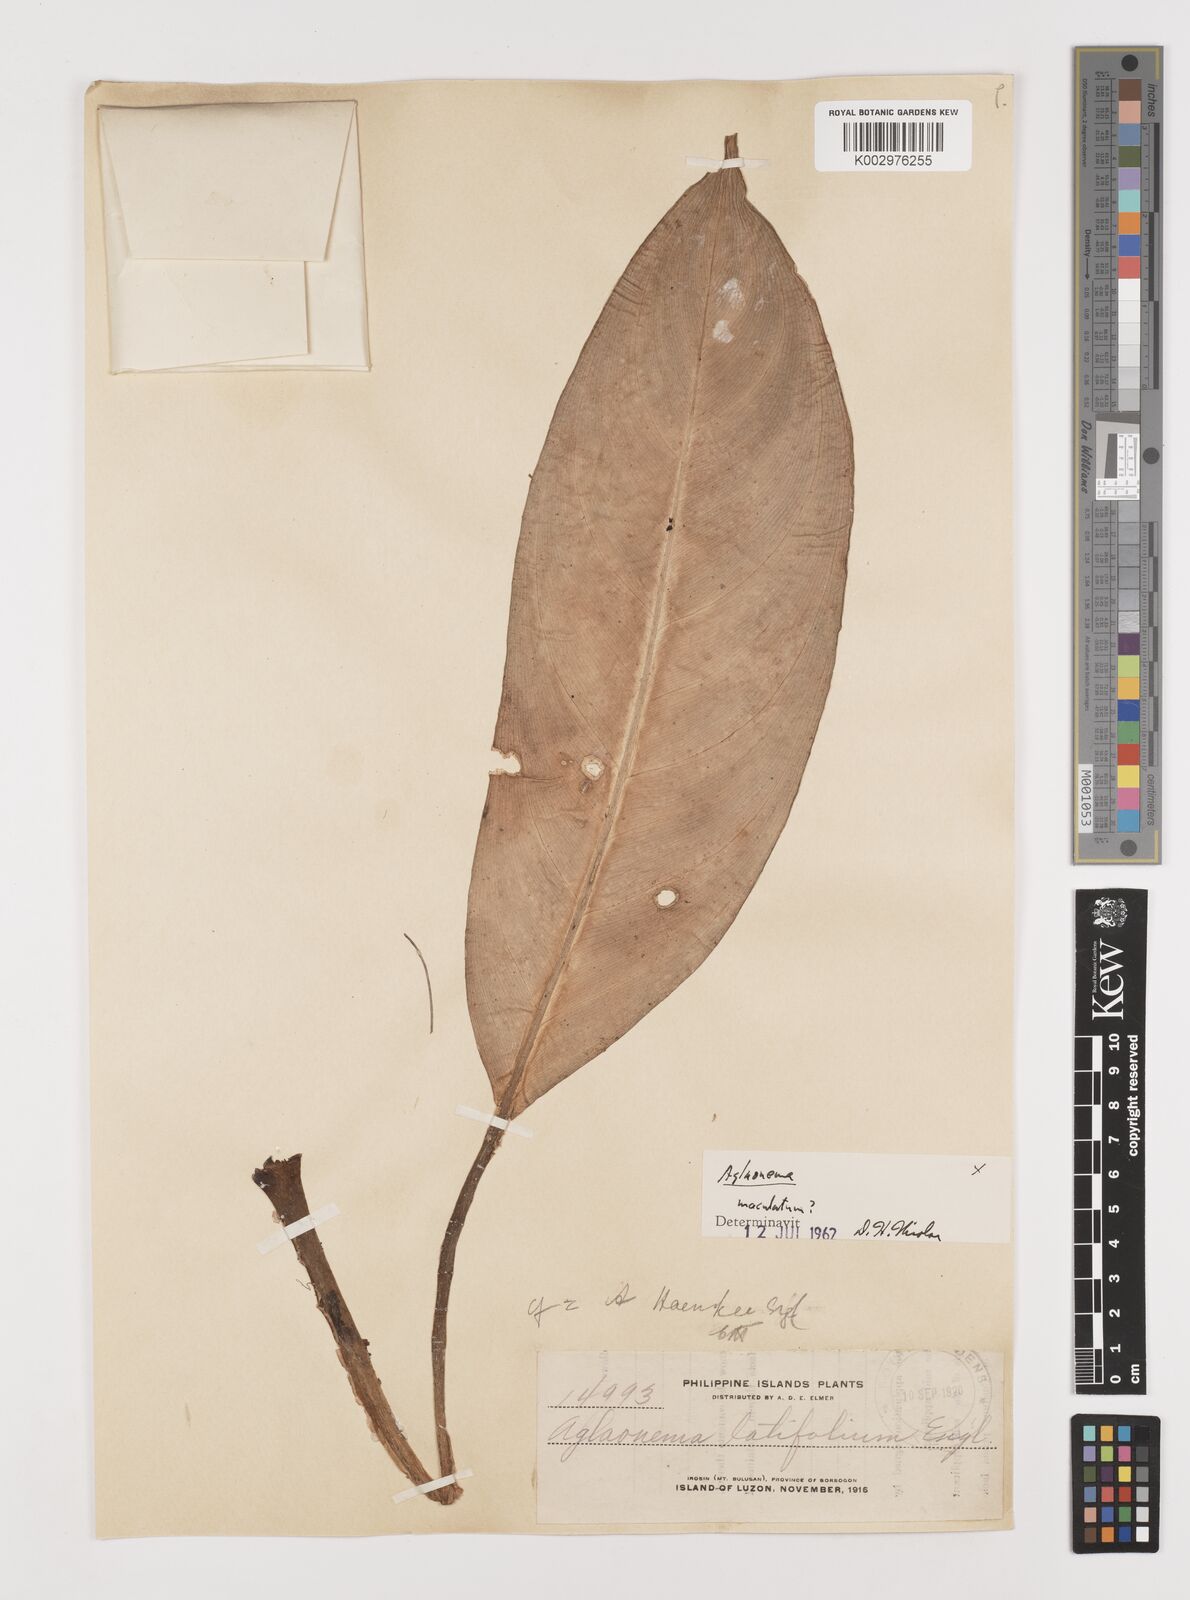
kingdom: Plantae
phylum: Tracheophyta
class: Liliopsida
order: Alismatales
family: Araceae
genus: Aglaonema
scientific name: Aglaonema commutatum
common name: Philippine evergreen
